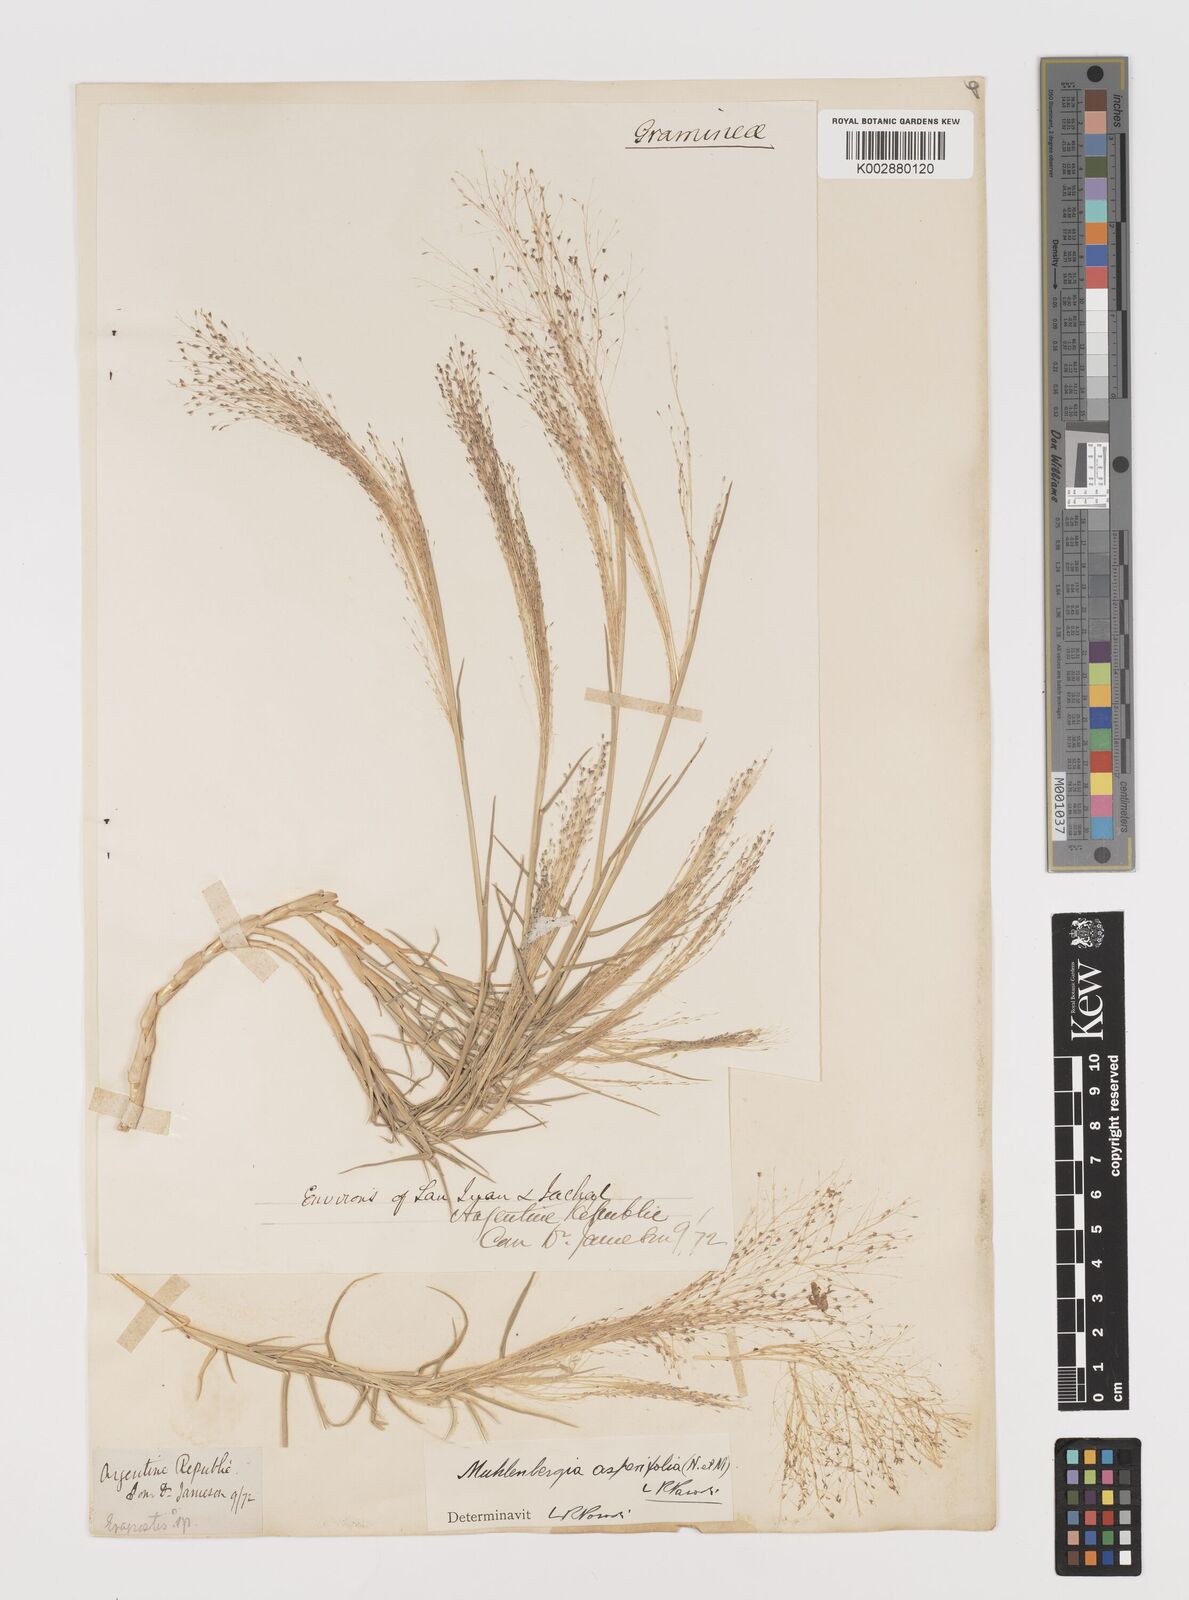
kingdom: Plantae
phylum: Tracheophyta
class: Liliopsida
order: Poales
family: Poaceae
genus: Muhlenbergia
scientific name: Muhlenbergia asperifolia
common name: Alkali muhly
